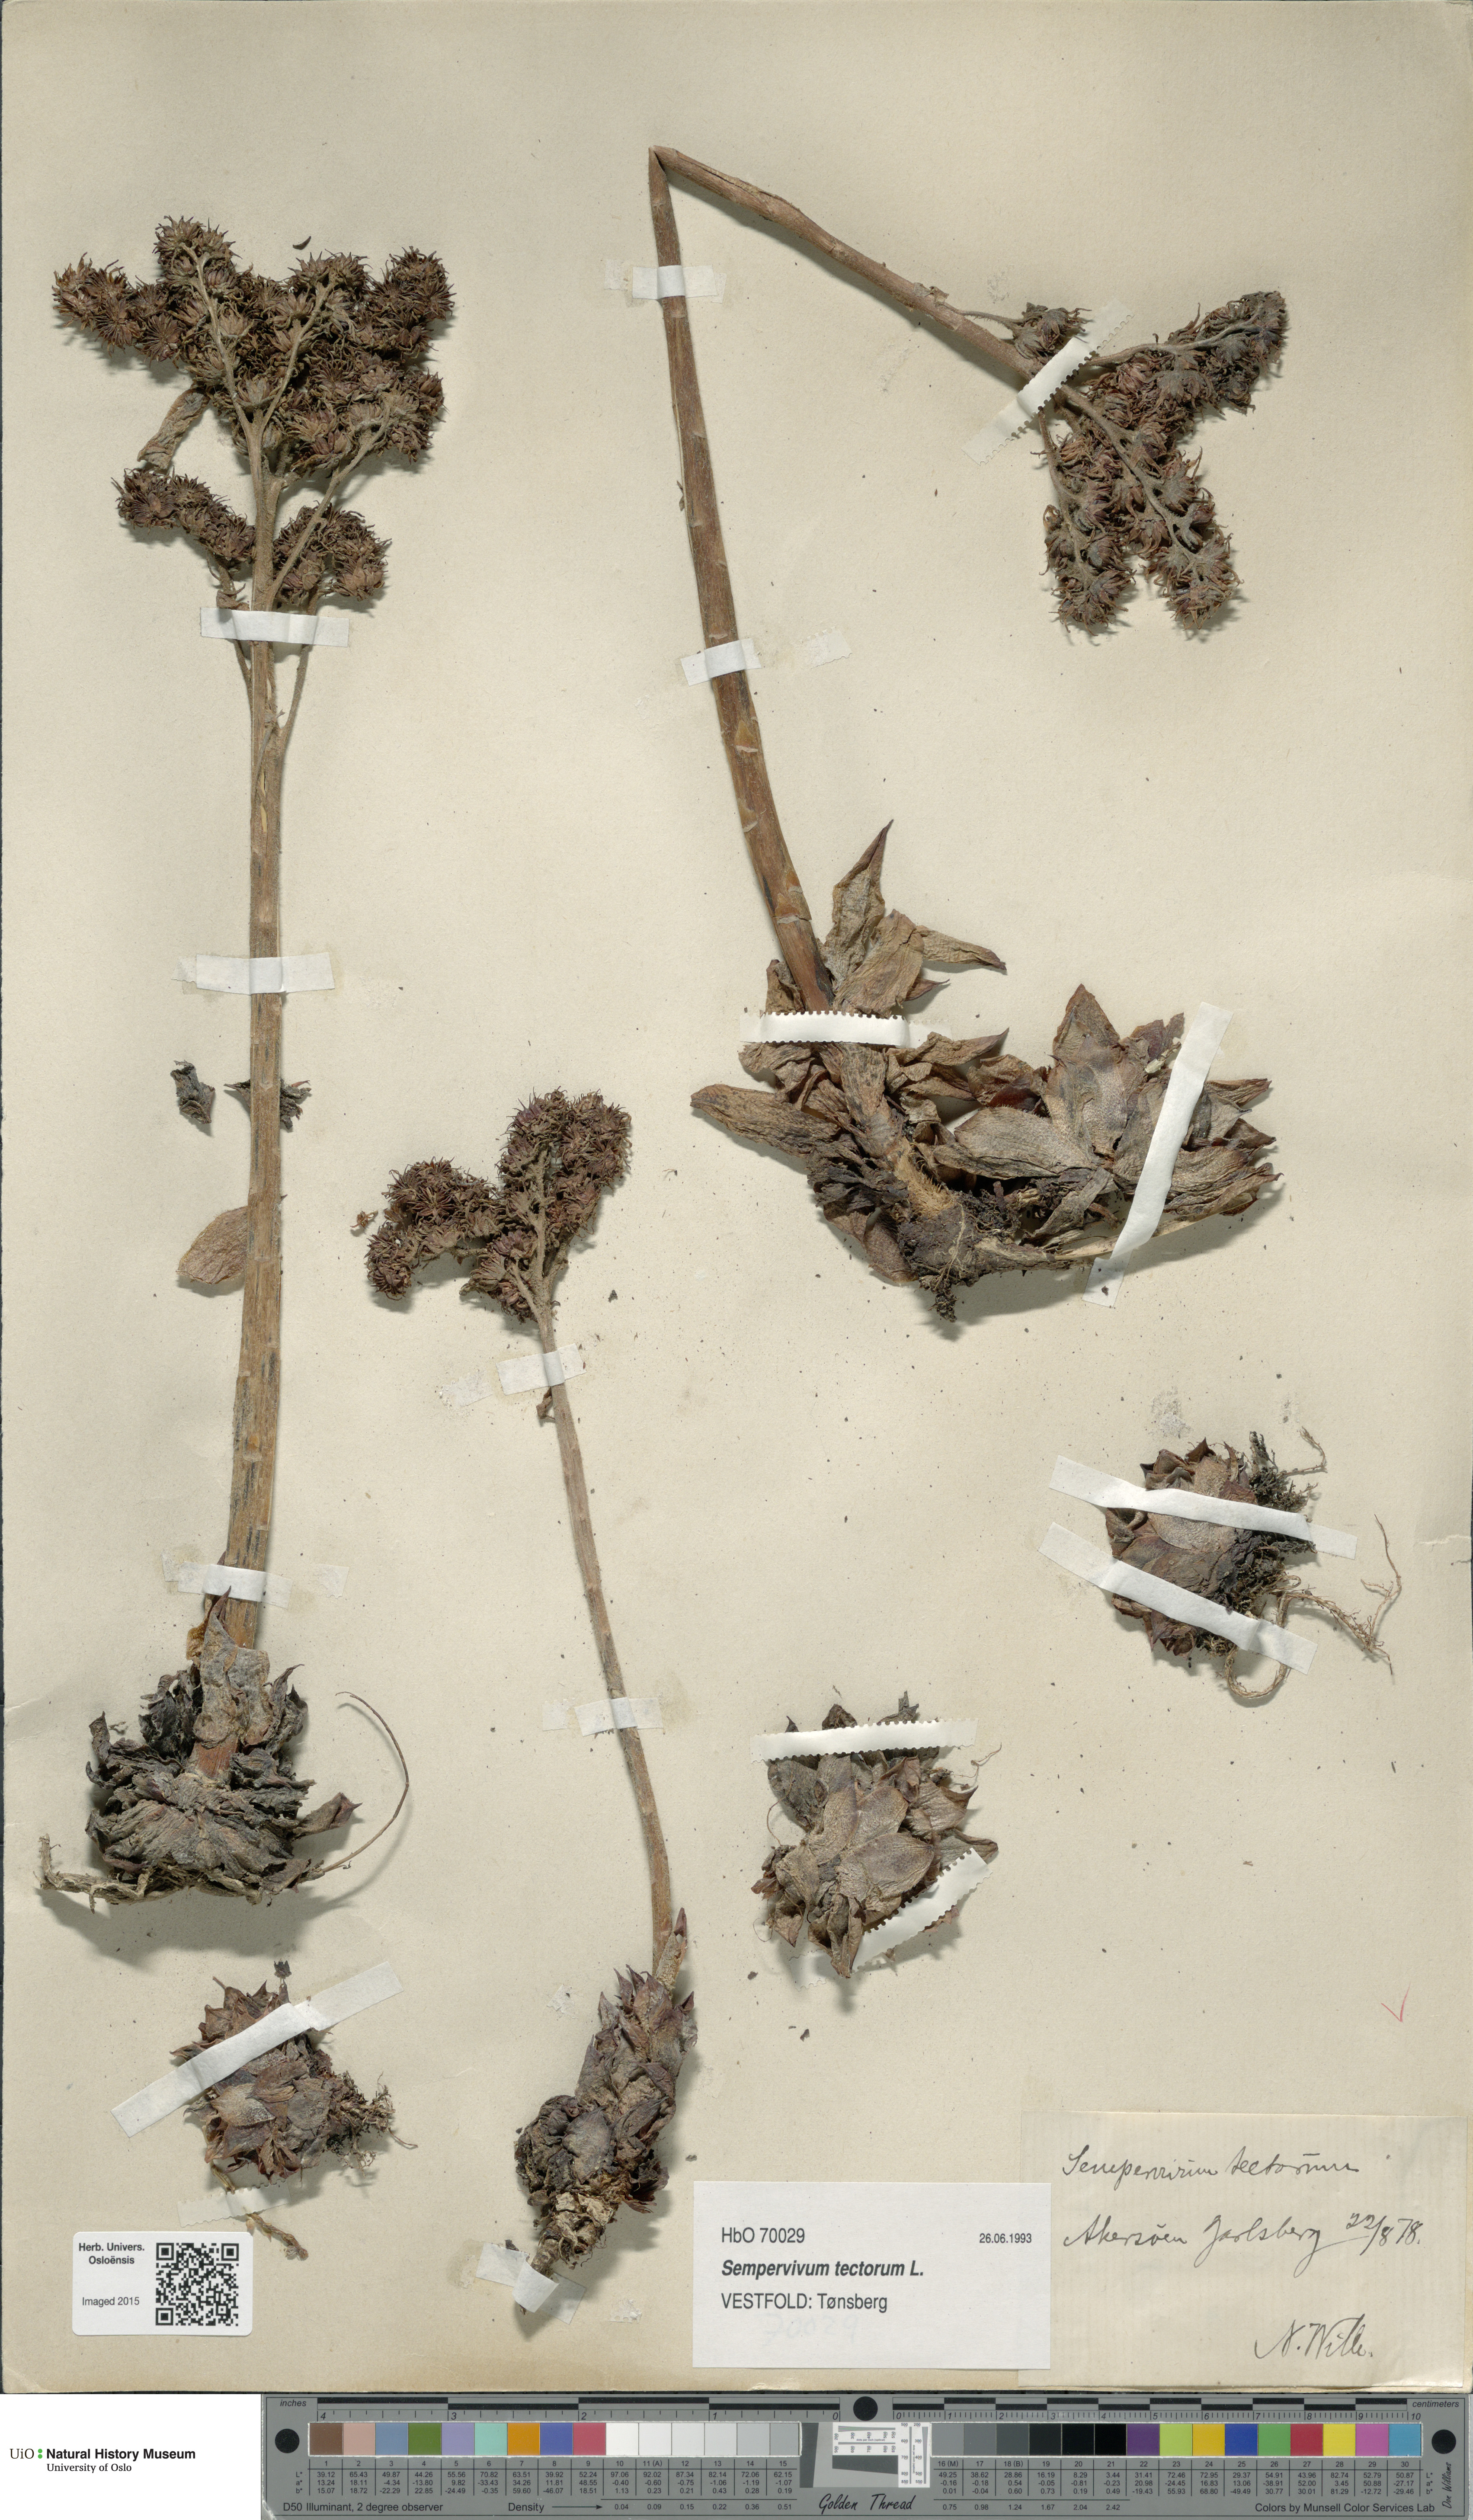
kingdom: Plantae
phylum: Tracheophyta
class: Magnoliopsida
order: Saxifragales
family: Crassulaceae
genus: Sempervivum
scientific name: Sempervivum tectorum
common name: House-leek
